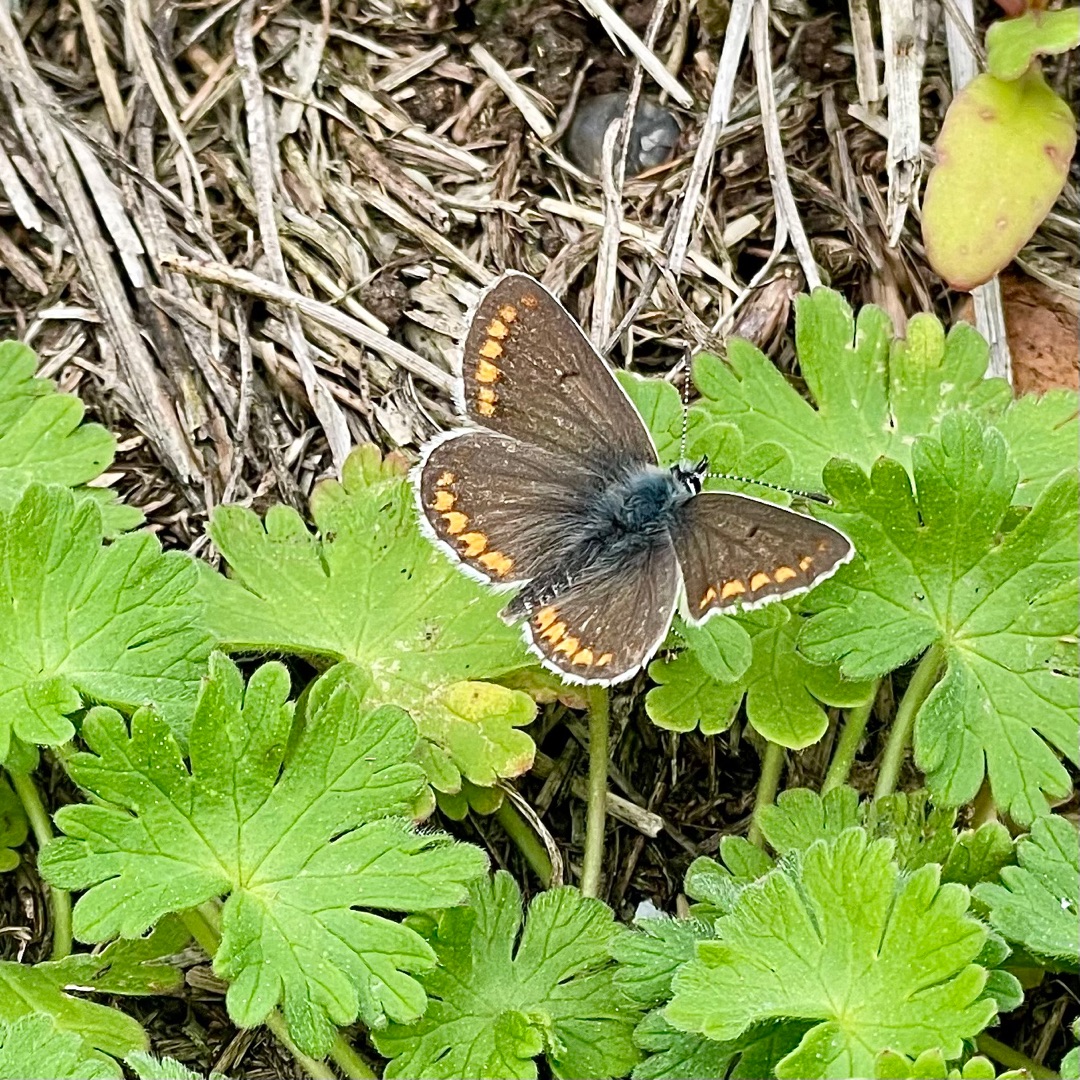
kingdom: Animalia
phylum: Arthropoda
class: Insecta
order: Lepidoptera
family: Lycaenidae
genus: Aricia
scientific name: Aricia agestis
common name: Rødplettet blåfugl
